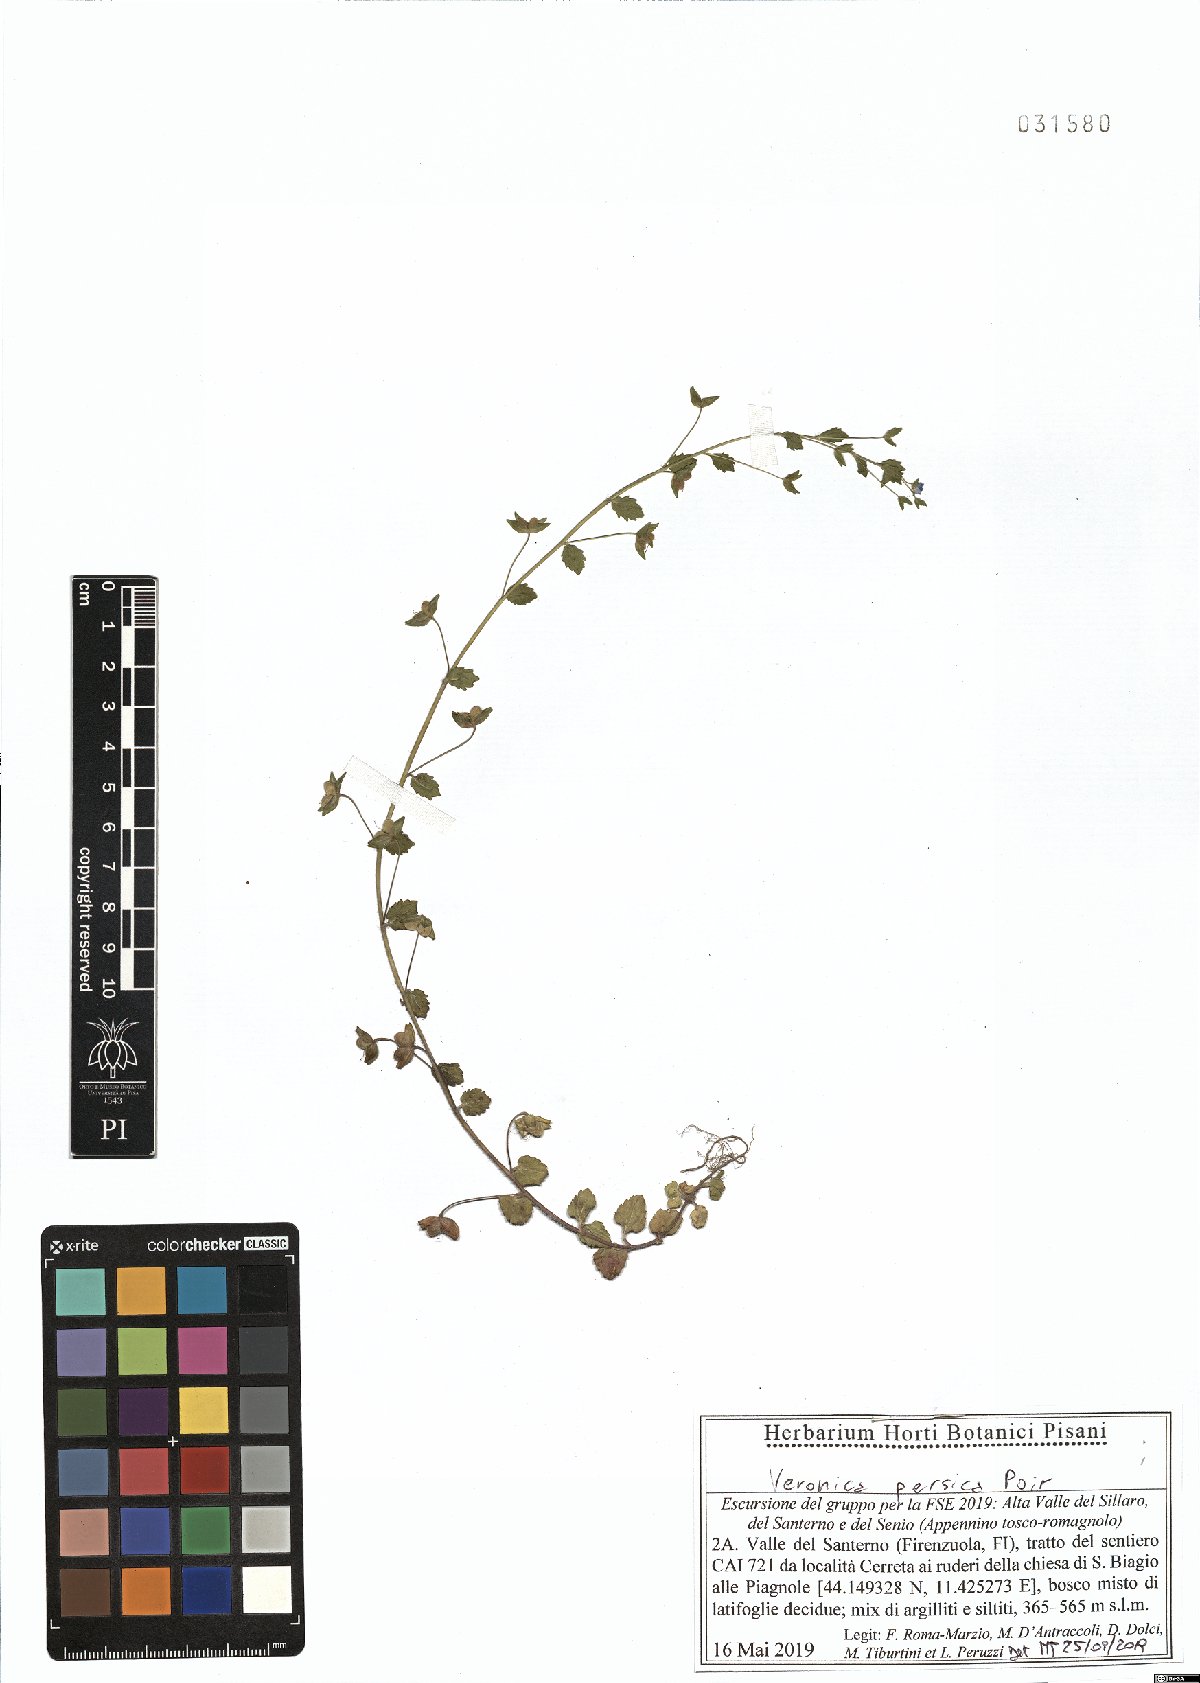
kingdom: Plantae
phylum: Tracheophyta
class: Magnoliopsida
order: Lamiales
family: Plantaginaceae
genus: Veronica
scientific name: Veronica persica
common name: Common field-speedwell
